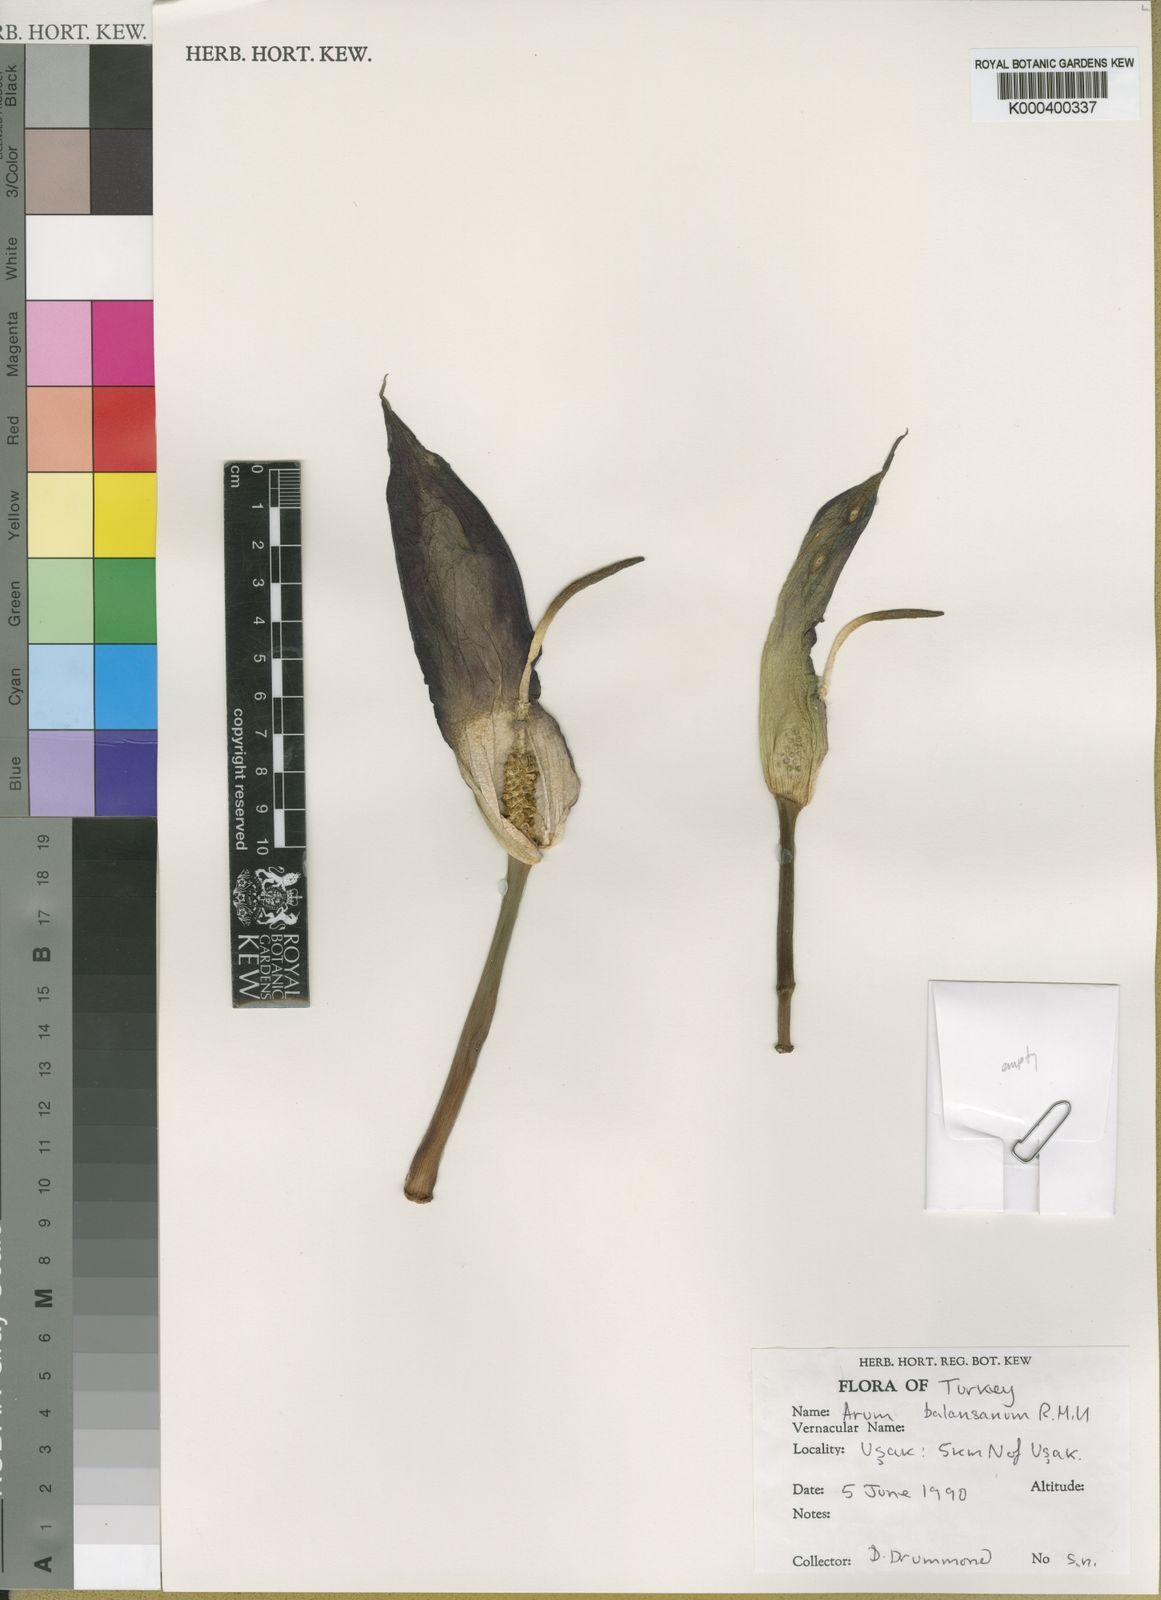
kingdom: Plantae
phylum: Tracheophyta
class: Liliopsida
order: Alismatales
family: Araceae
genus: Arum
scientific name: Arum orientale
